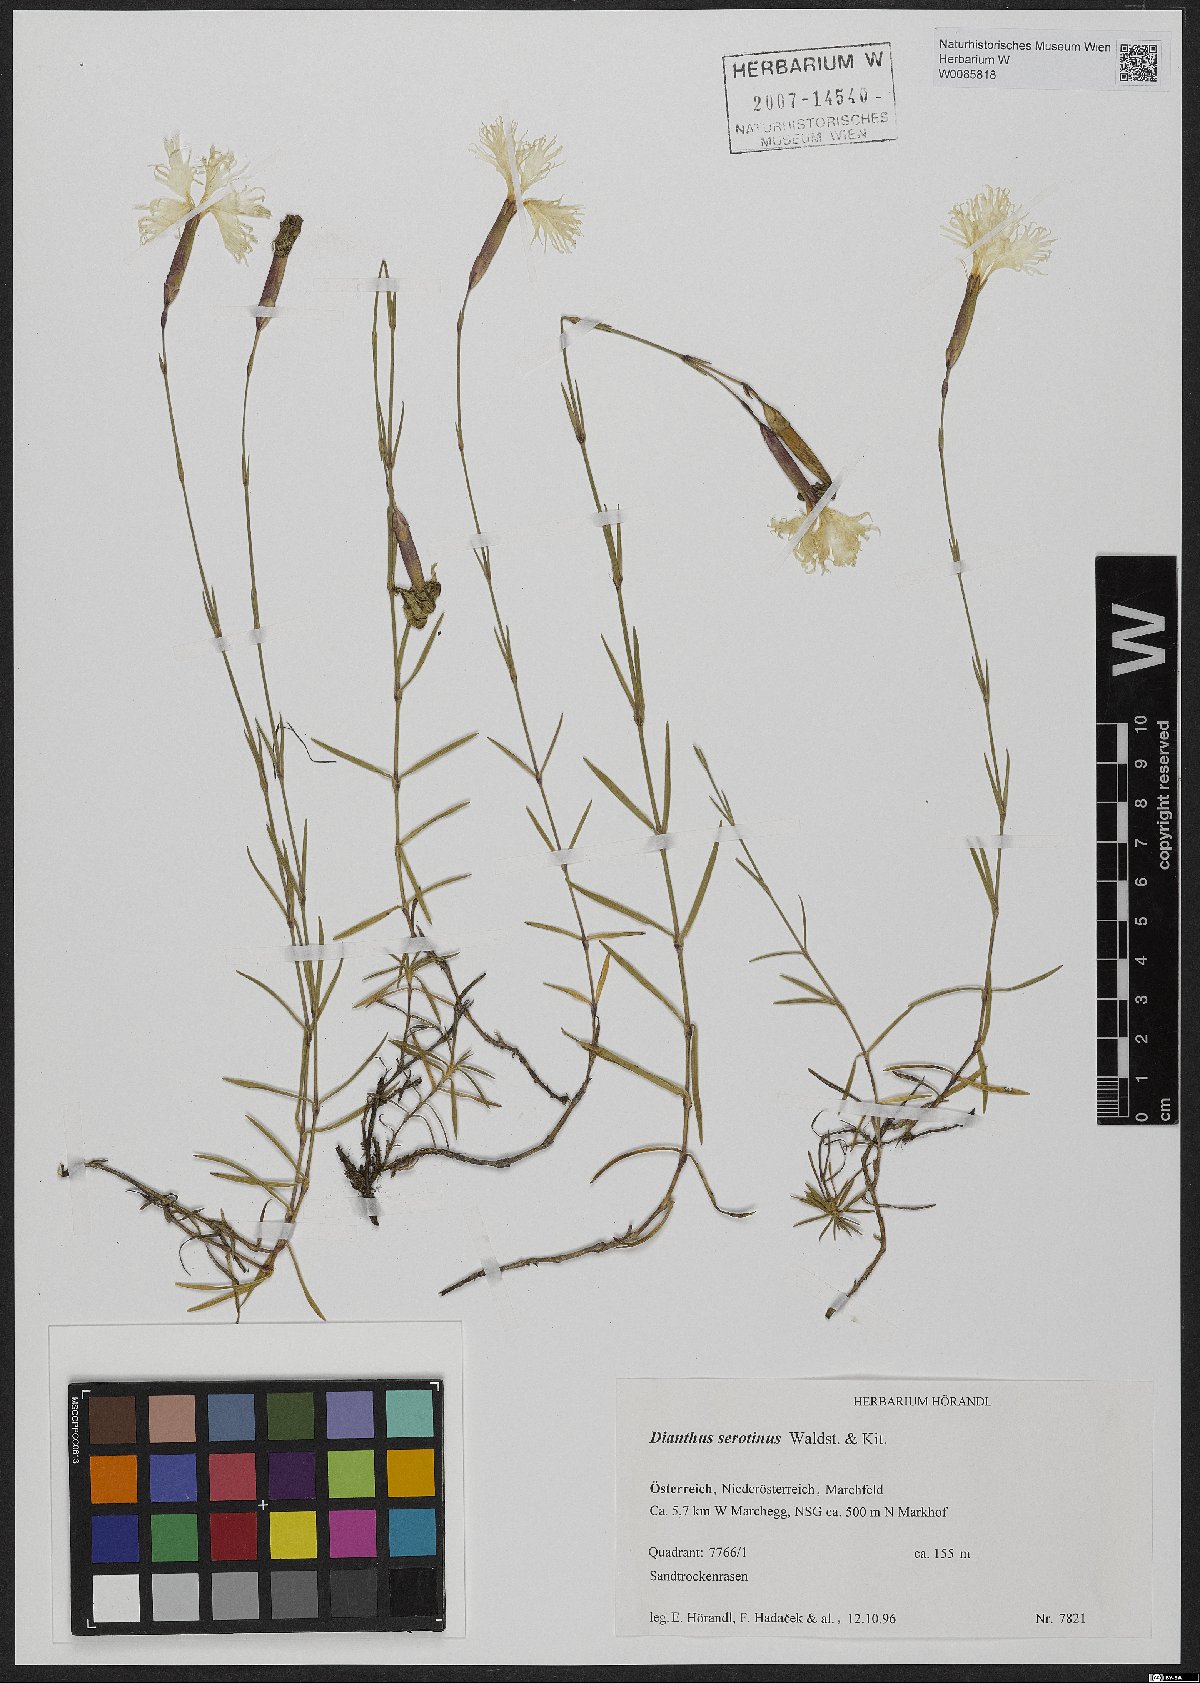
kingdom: Plantae
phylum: Tracheophyta
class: Magnoliopsida
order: Caryophyllales
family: Caryophyllaceae
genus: Dianthus
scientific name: Dianthus serotinus
